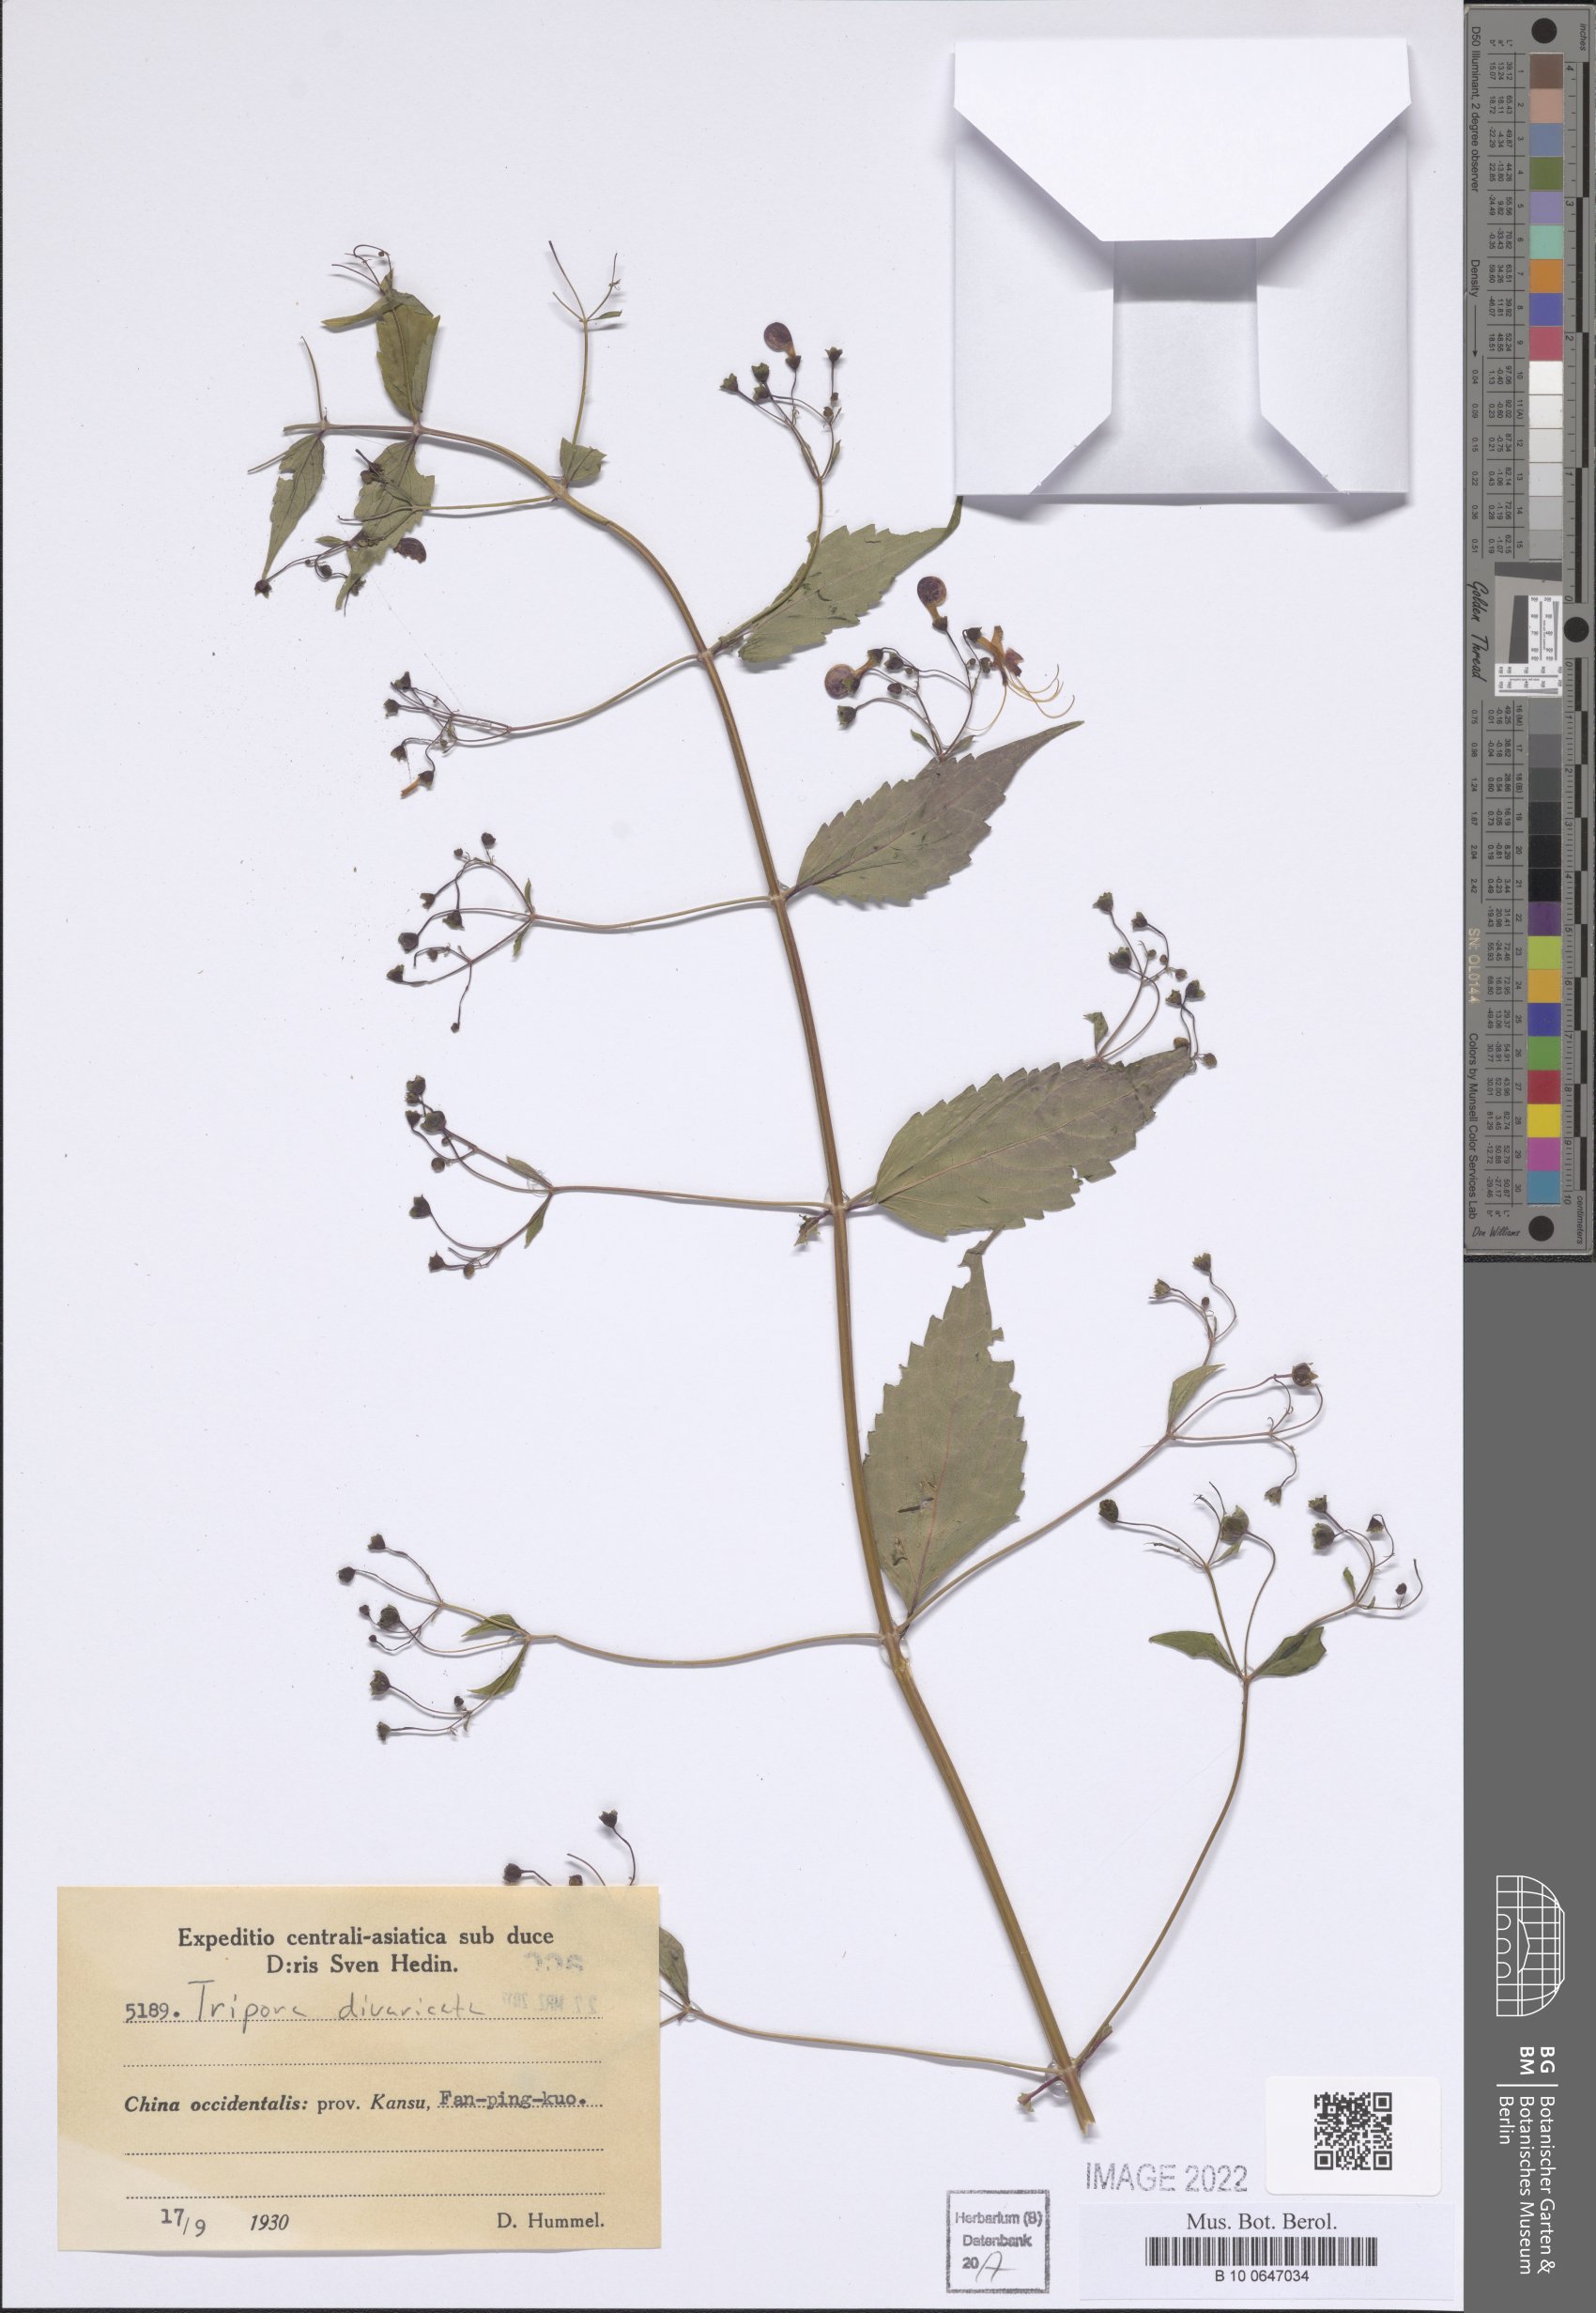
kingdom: Plantae
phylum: Tracheophyta
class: Magnoliopsida
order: Lamiales
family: Lamiaceae
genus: Tripora
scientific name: Tripora divaricata
